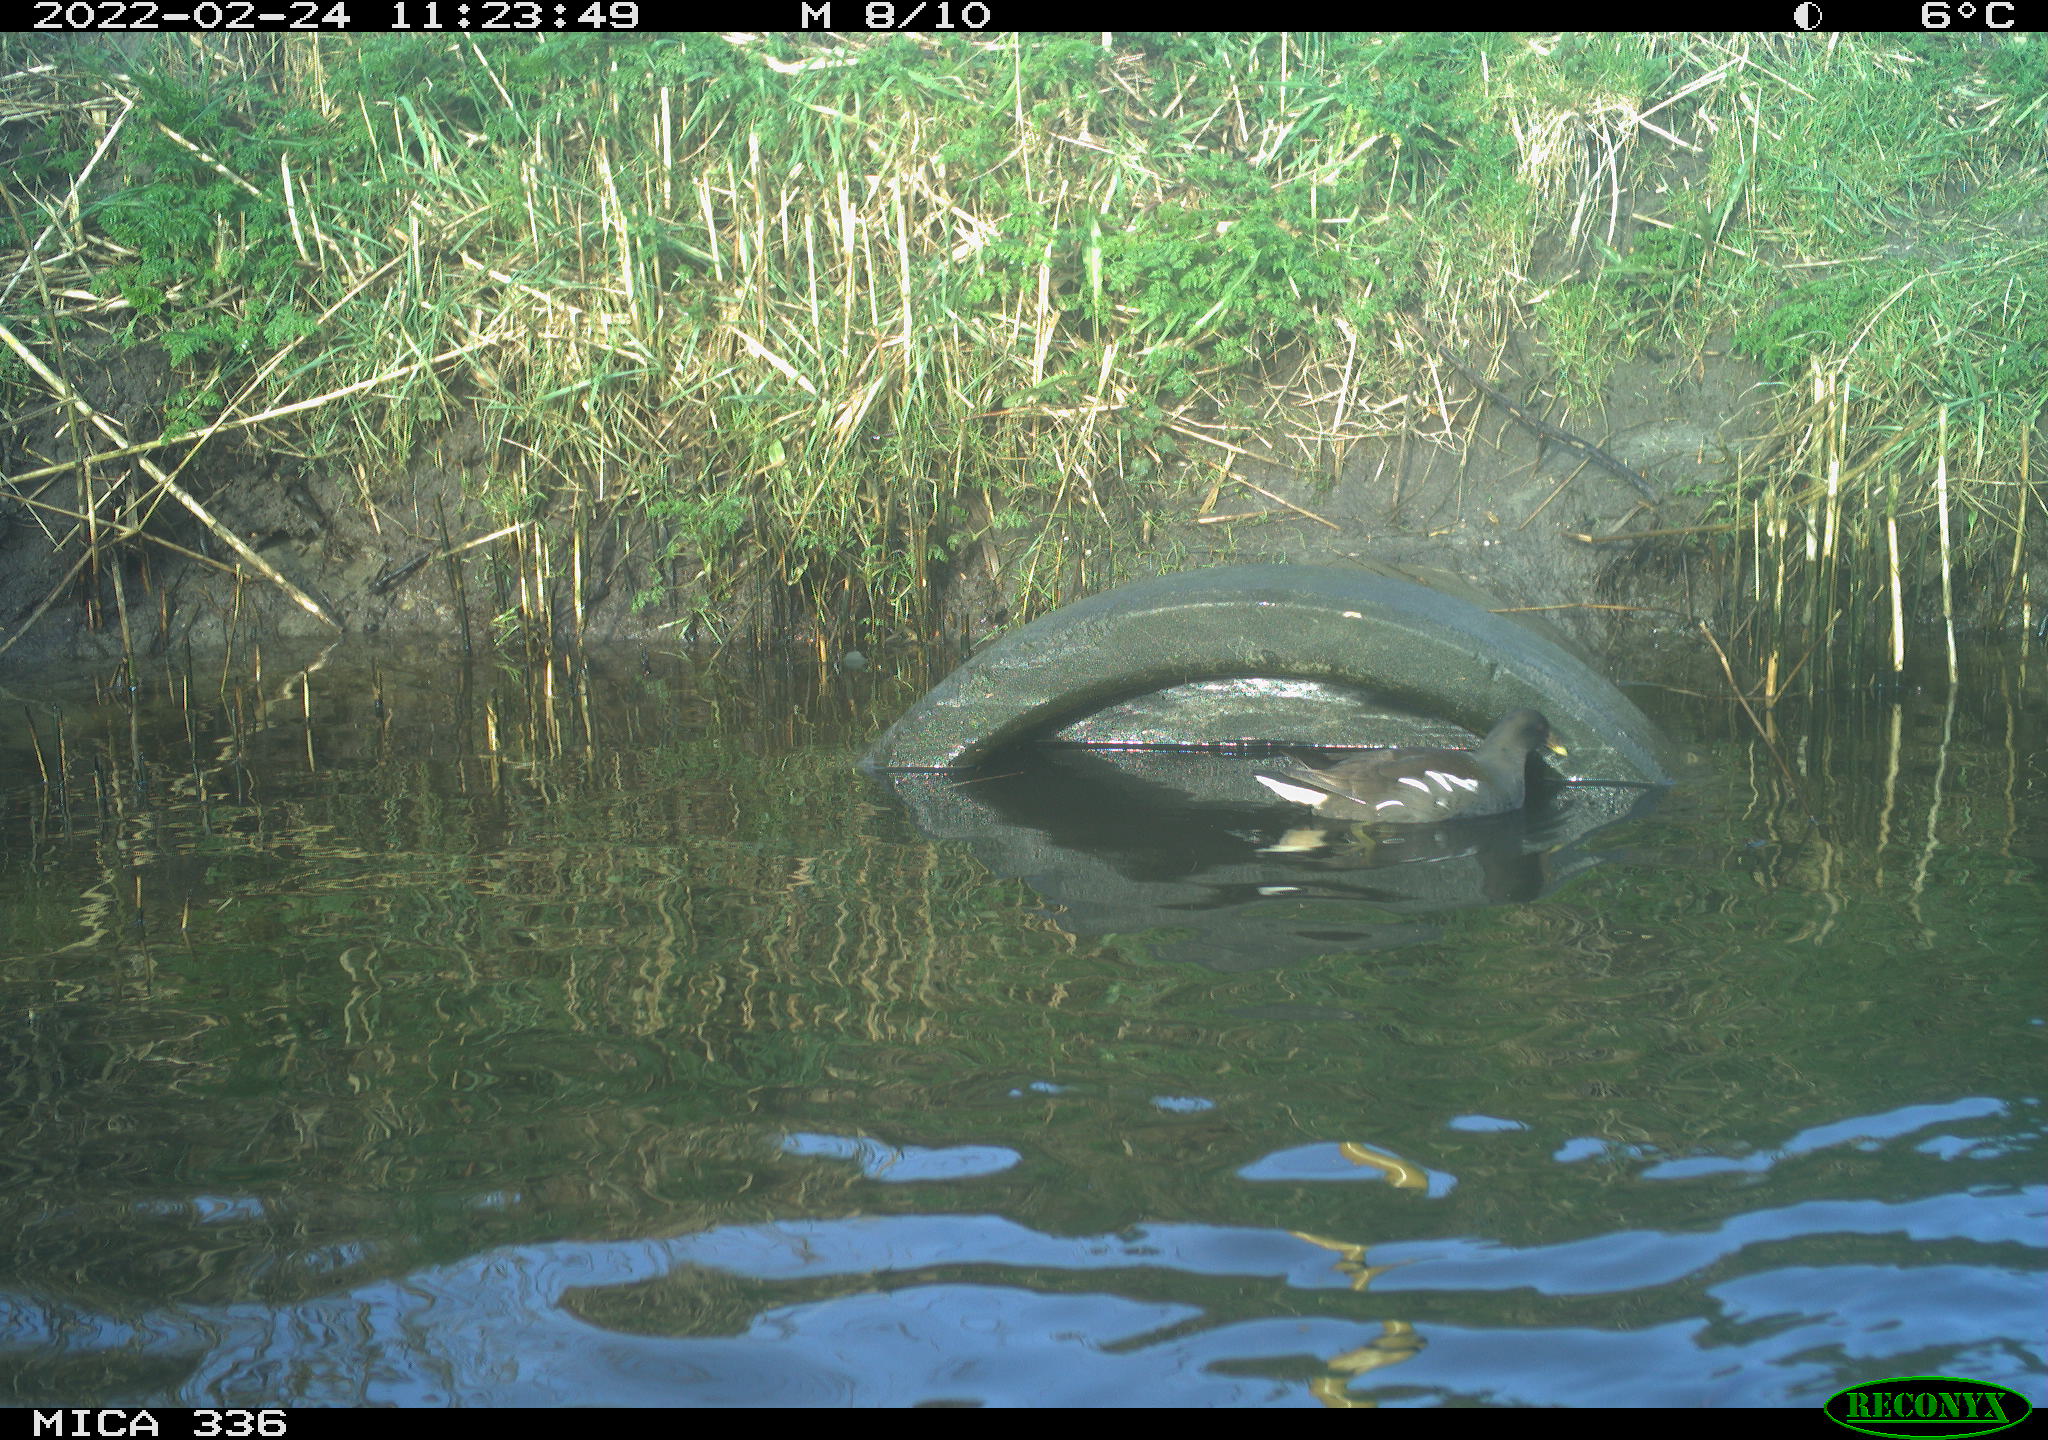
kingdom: Animalia
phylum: Chordata
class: Aves
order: Podicipediformes
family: Podicipedidae
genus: Podiceps
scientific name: Podiceps cristatus
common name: Great crested grebe
